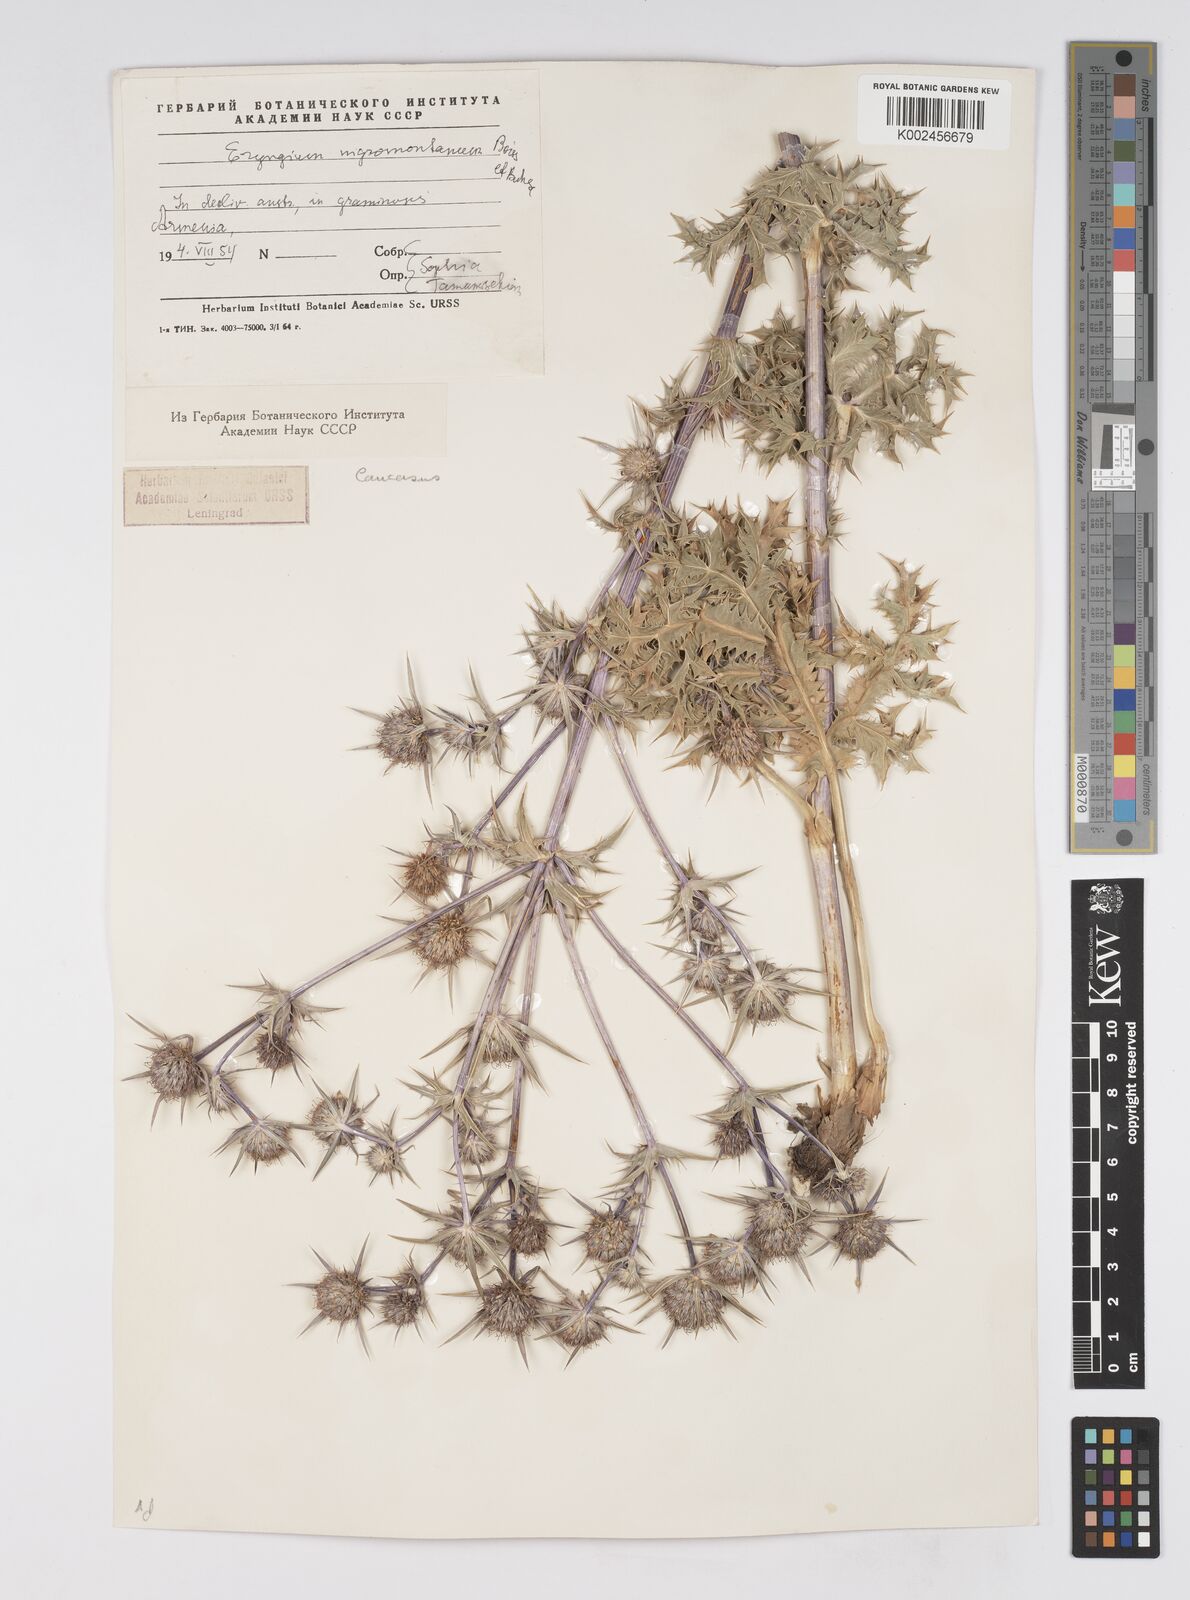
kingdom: Plantae
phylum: Tracheophyta
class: Magnoliopsida
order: Apiales
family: Apiaceae
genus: Eryngium
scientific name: Eryngium billardierei
